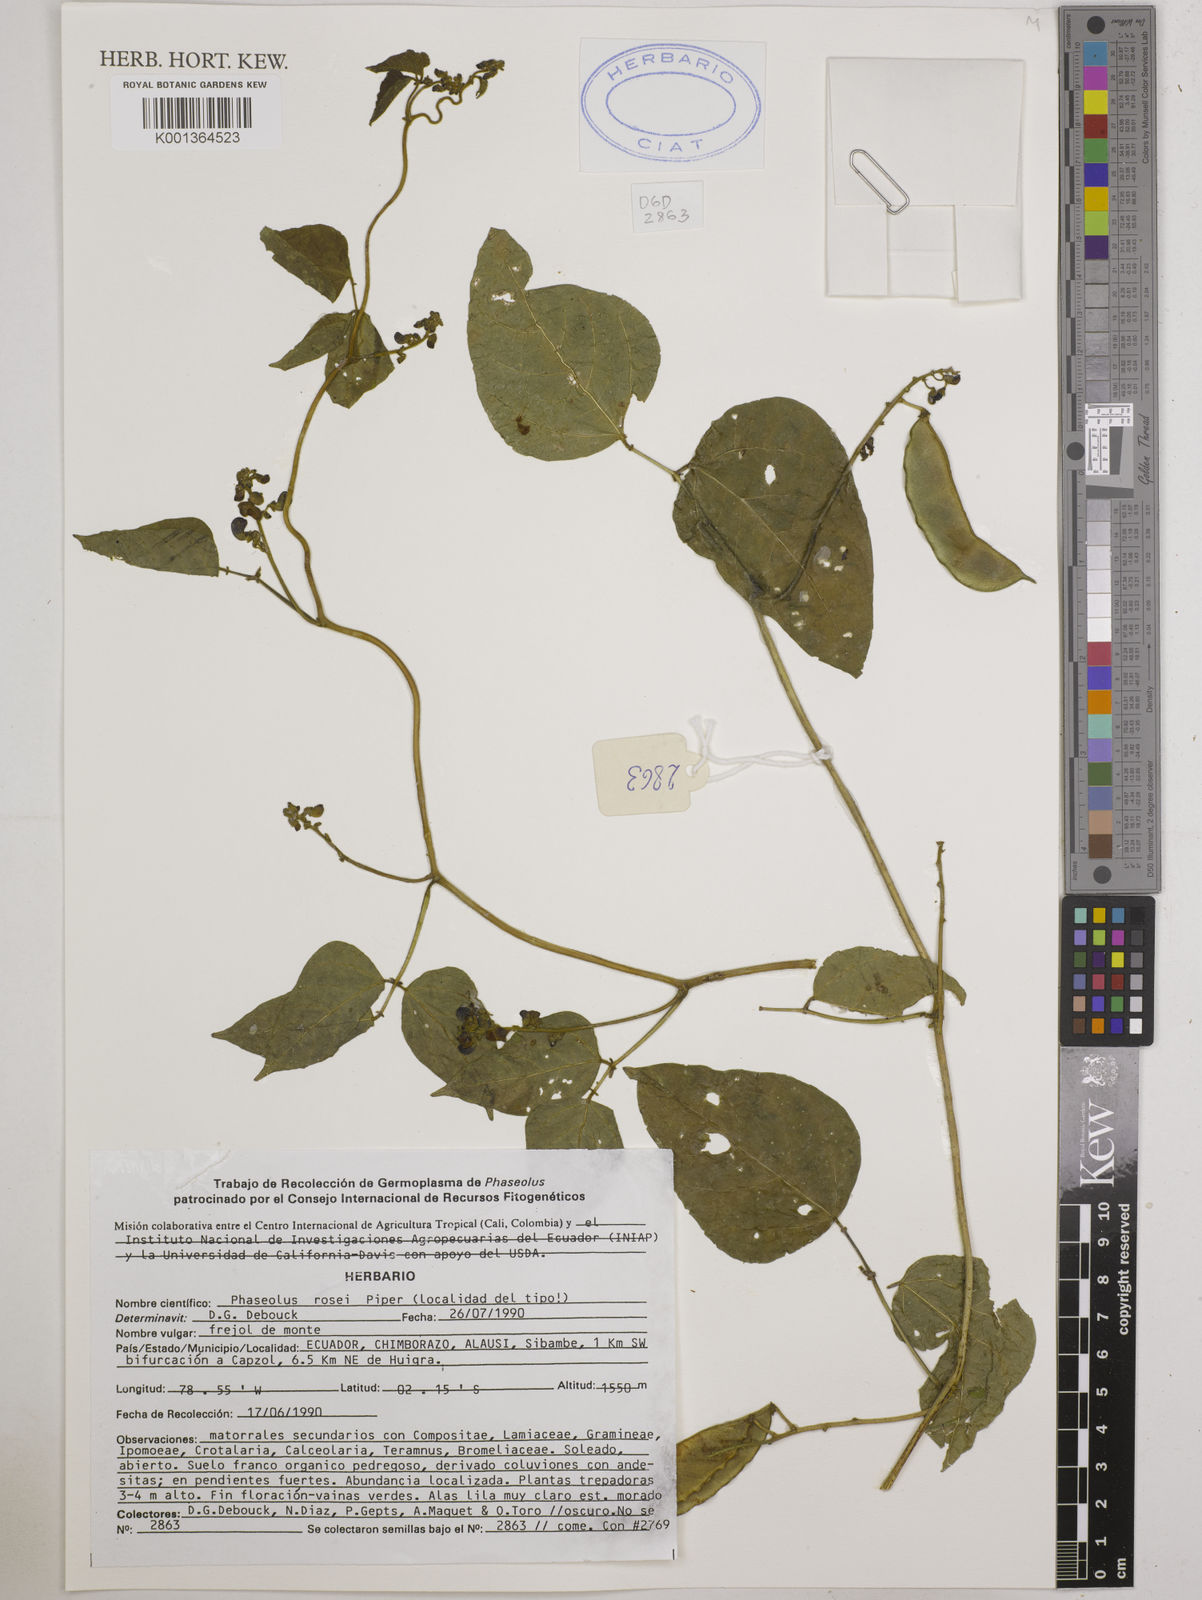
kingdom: Plantae
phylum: Tracheophyta
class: Magnoliopsida
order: Fabales
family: Fabaceae
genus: Phaseolus
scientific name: Phaseolus rosei
